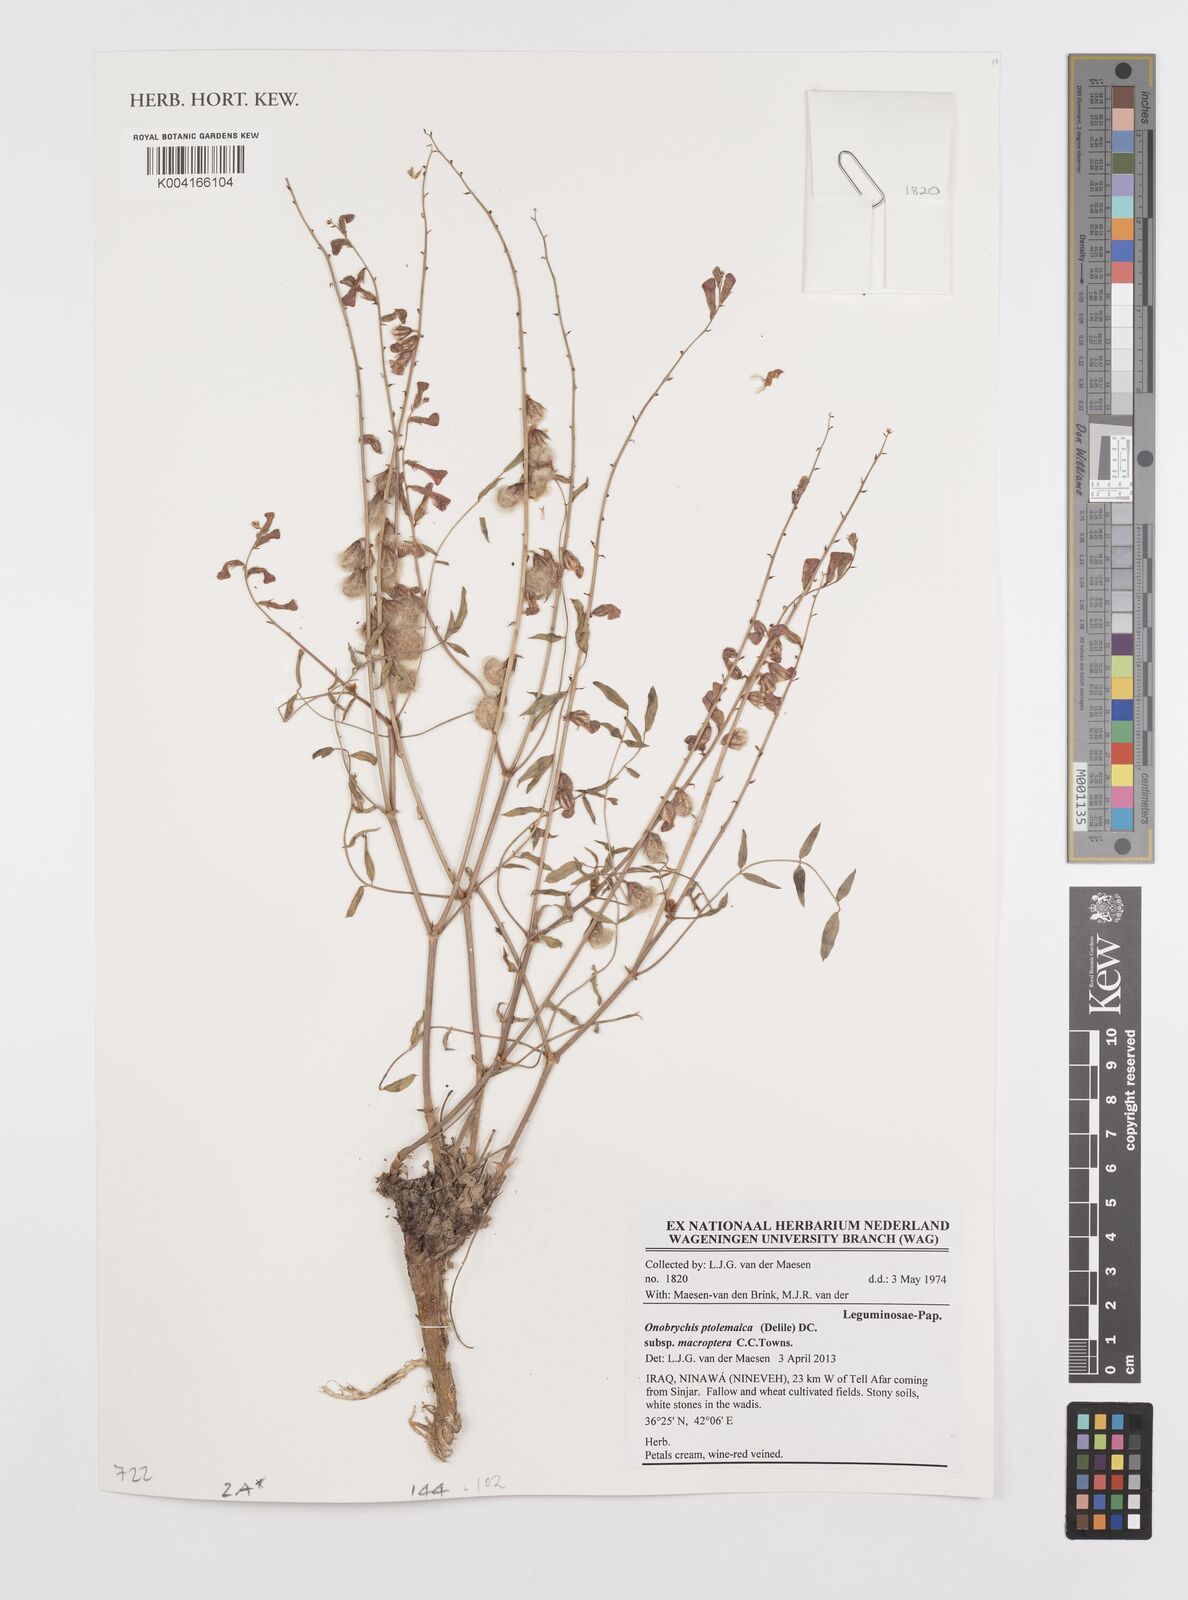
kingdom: Plantae
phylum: Tracheophyta
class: Magnoliopsida
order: Fabales
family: Fabaceae
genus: Onobrychis
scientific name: Onobrychis ptolemaica
